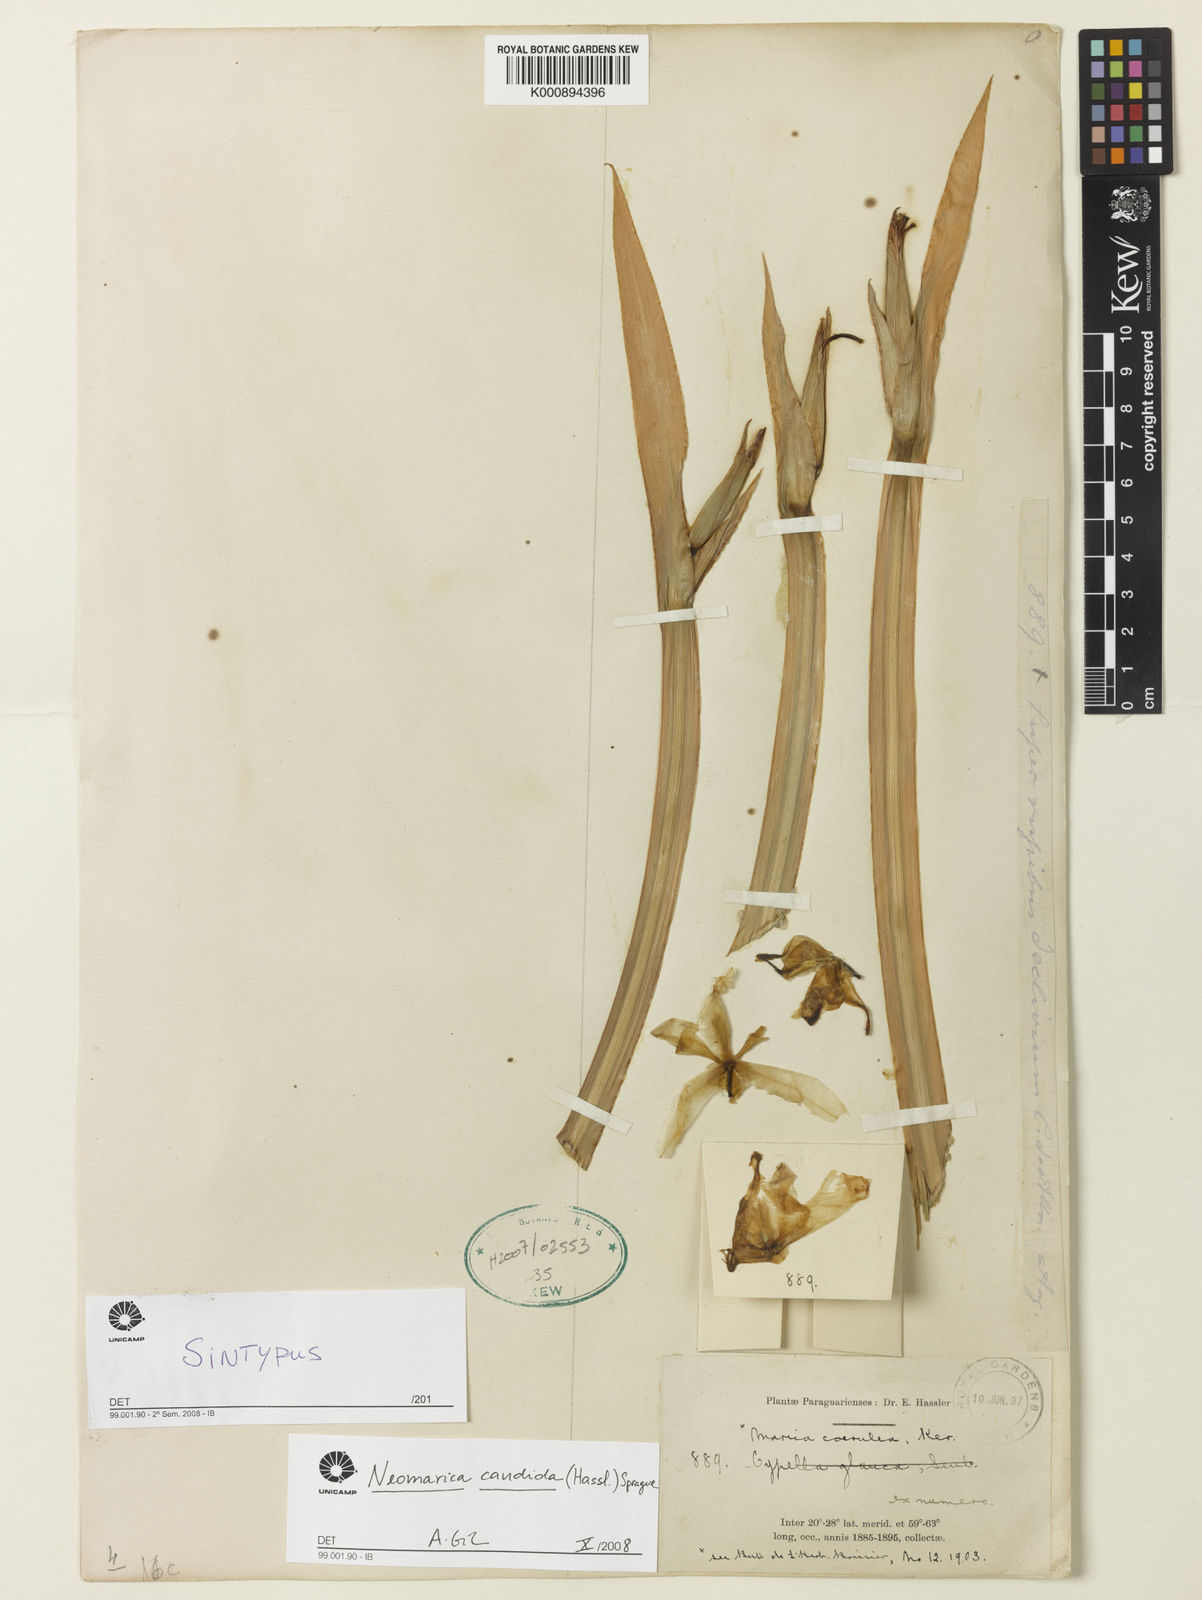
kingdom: Plantae
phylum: Tracheophyta
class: Liliopsida
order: Asparagales
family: Iridaceae
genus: Trimezia
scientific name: Trimezia candida
